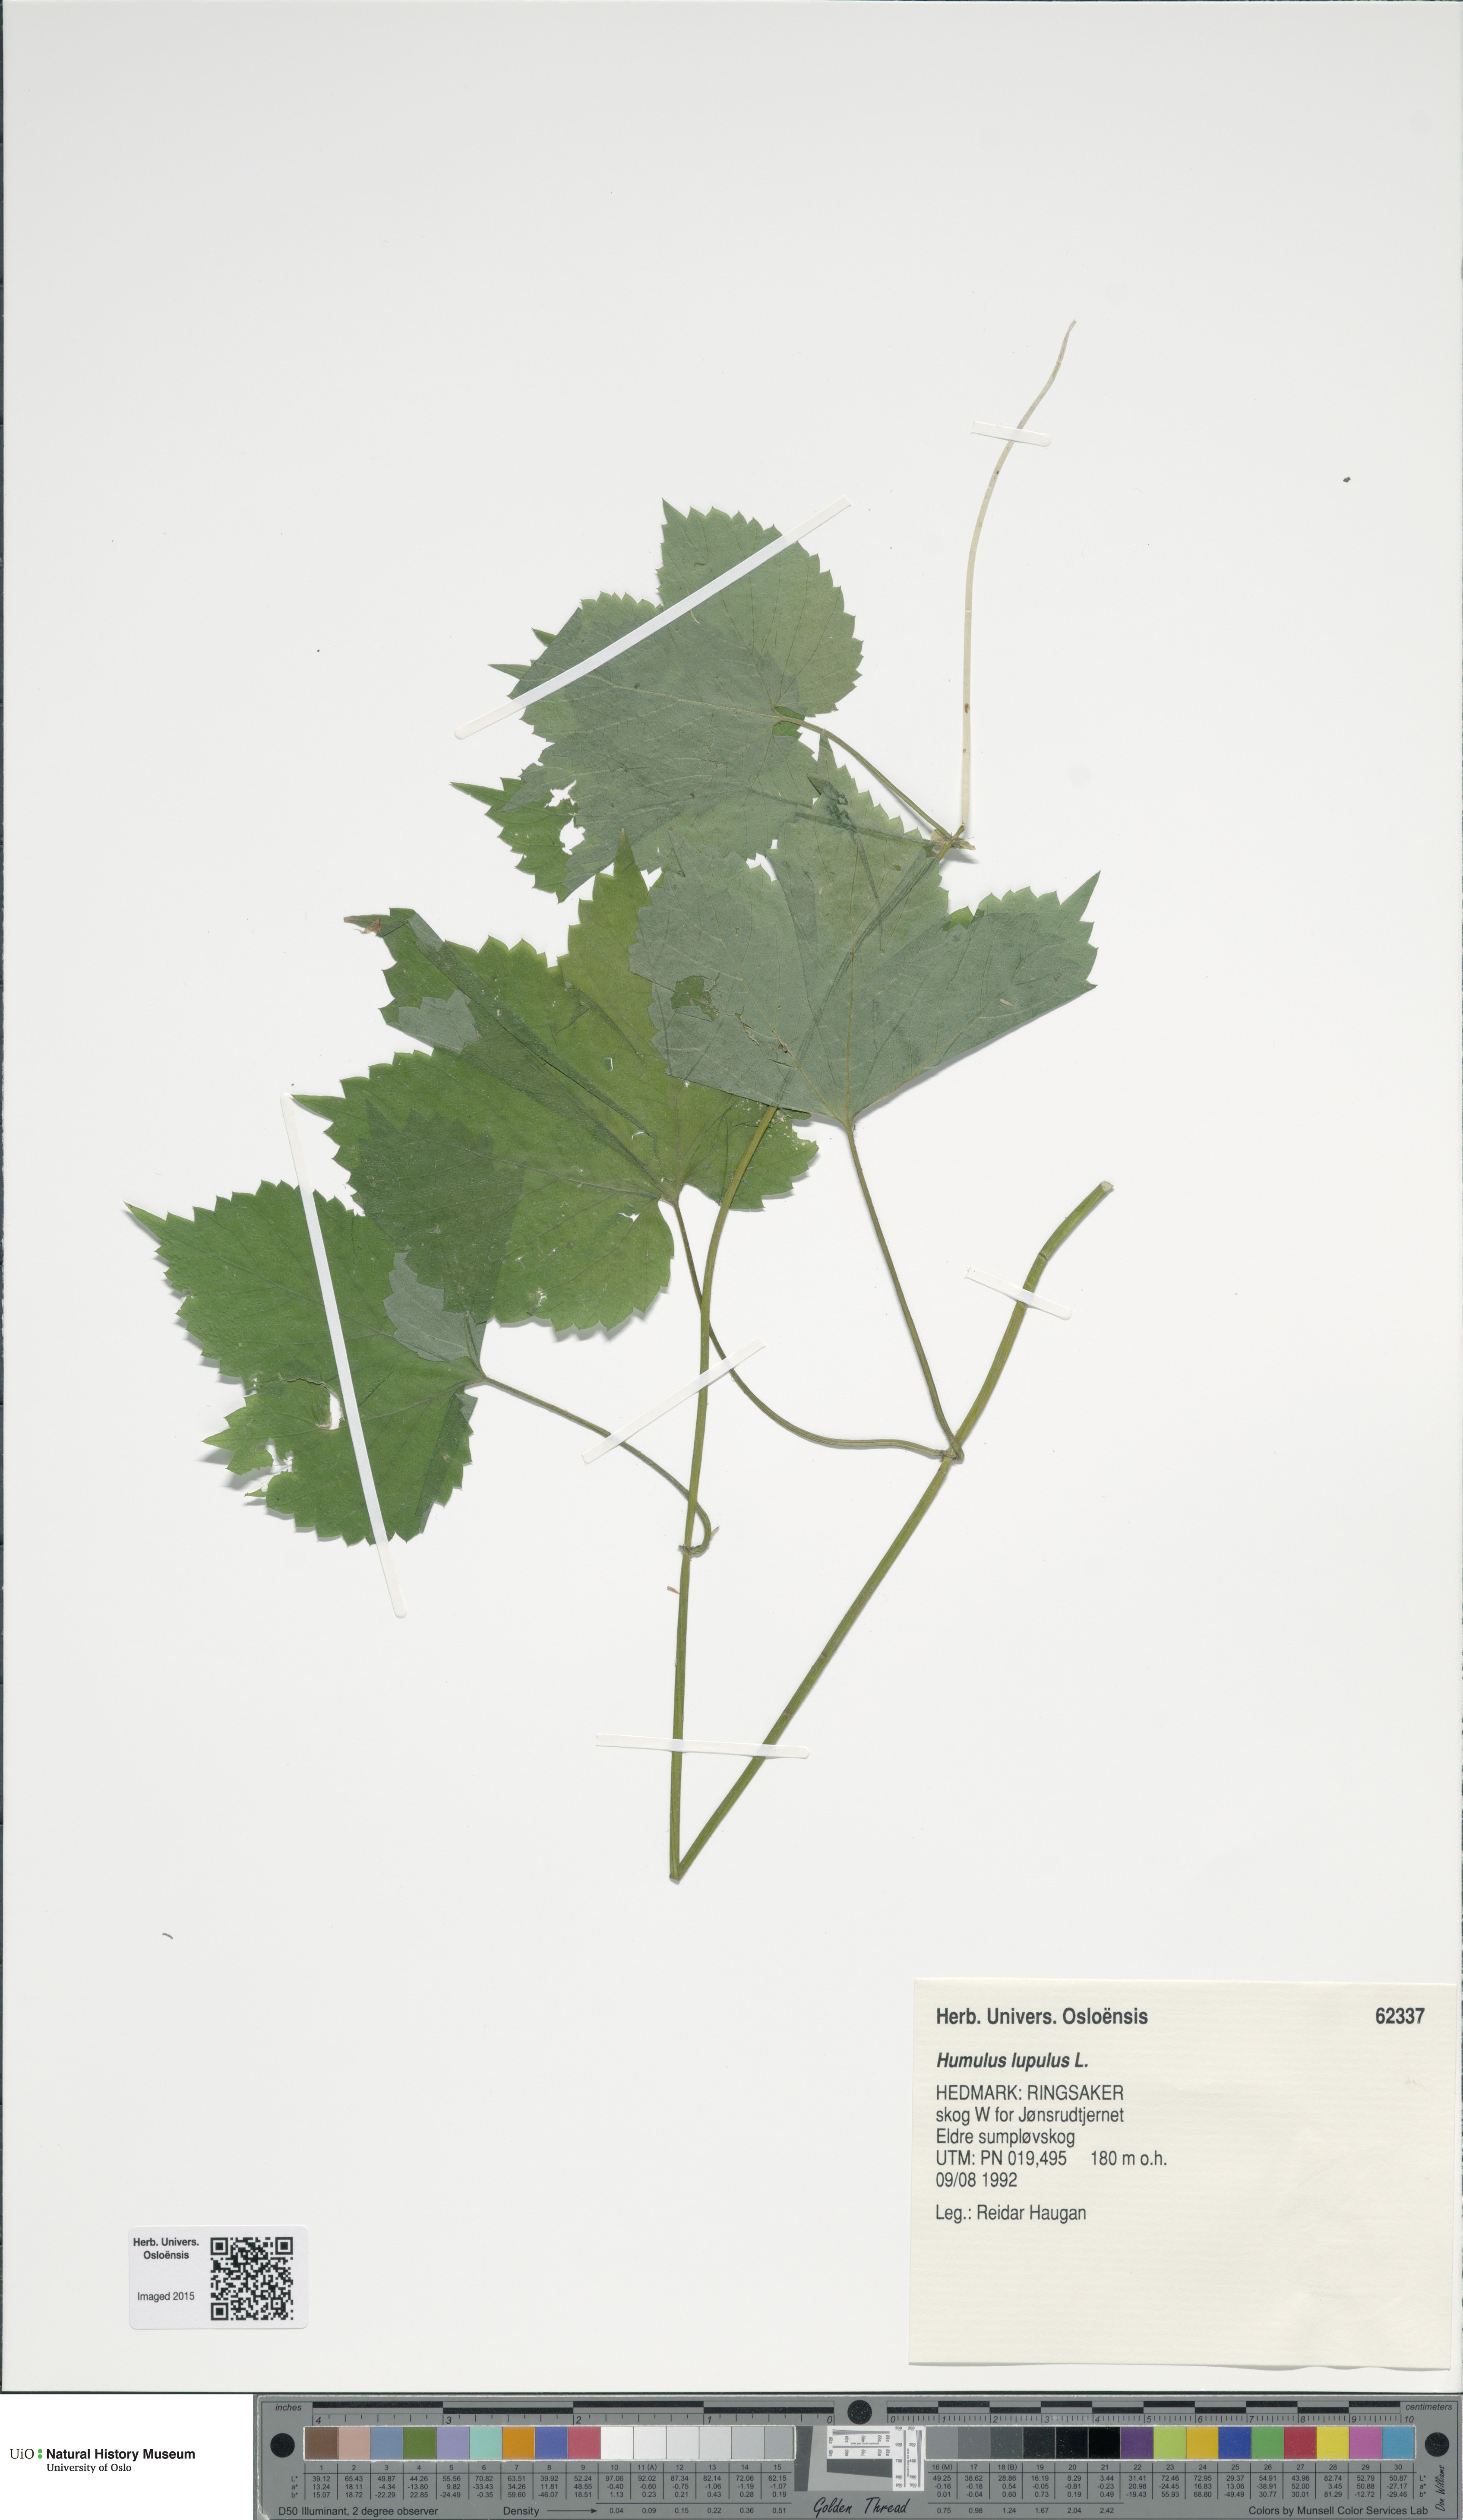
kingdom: Plantae
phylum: Tracheophyta
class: Magnoliopsida
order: Rosales
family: Cannabaceae
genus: Humulus
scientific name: Humulus lupulus
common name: Hop
